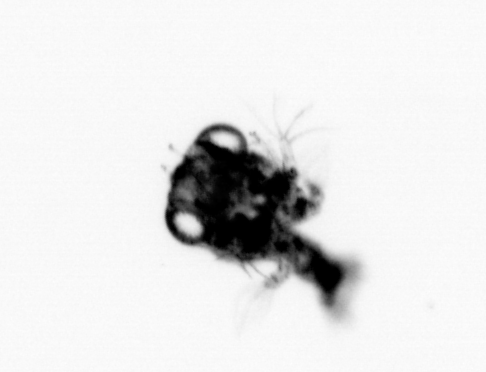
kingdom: Animalia
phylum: Arthropoda
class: Malacostraca
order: Decapoda
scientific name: Decapoda
